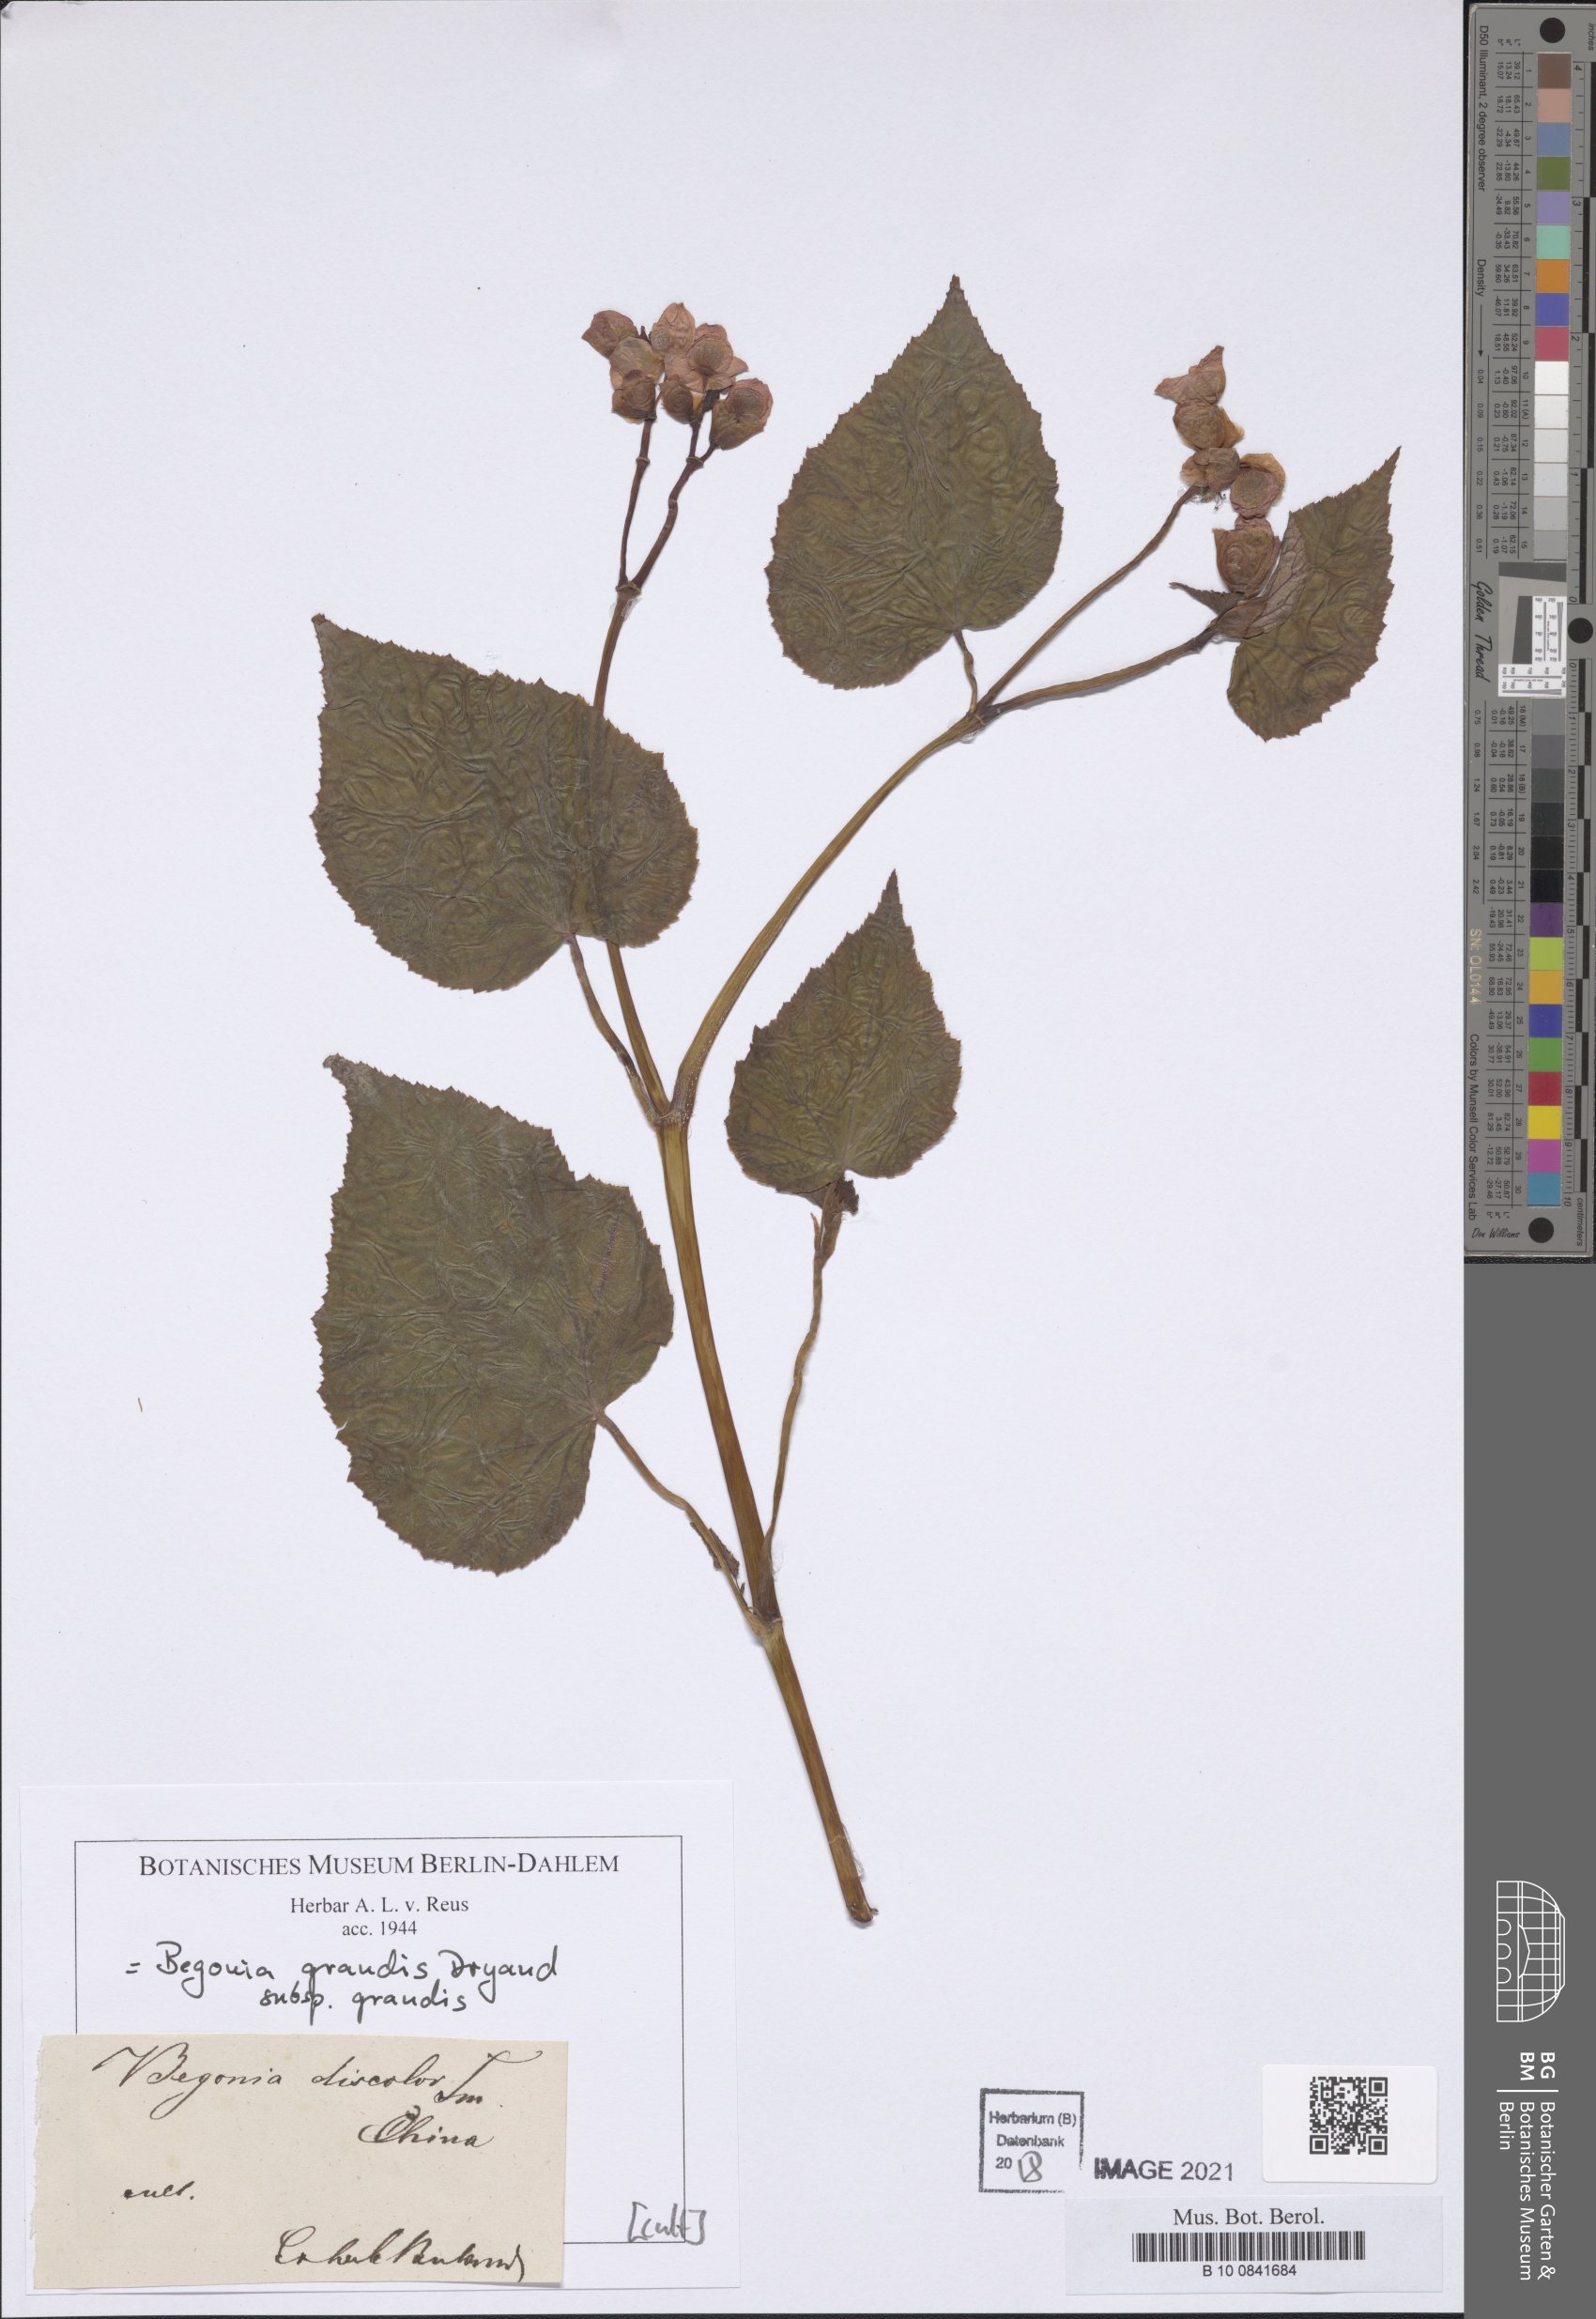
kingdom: Plantae
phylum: Tracheophyta
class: Magnoliopsida
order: Cucurbitales
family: Begoniaceae
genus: Begonia
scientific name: Begonia grandis
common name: Hardy begonia
